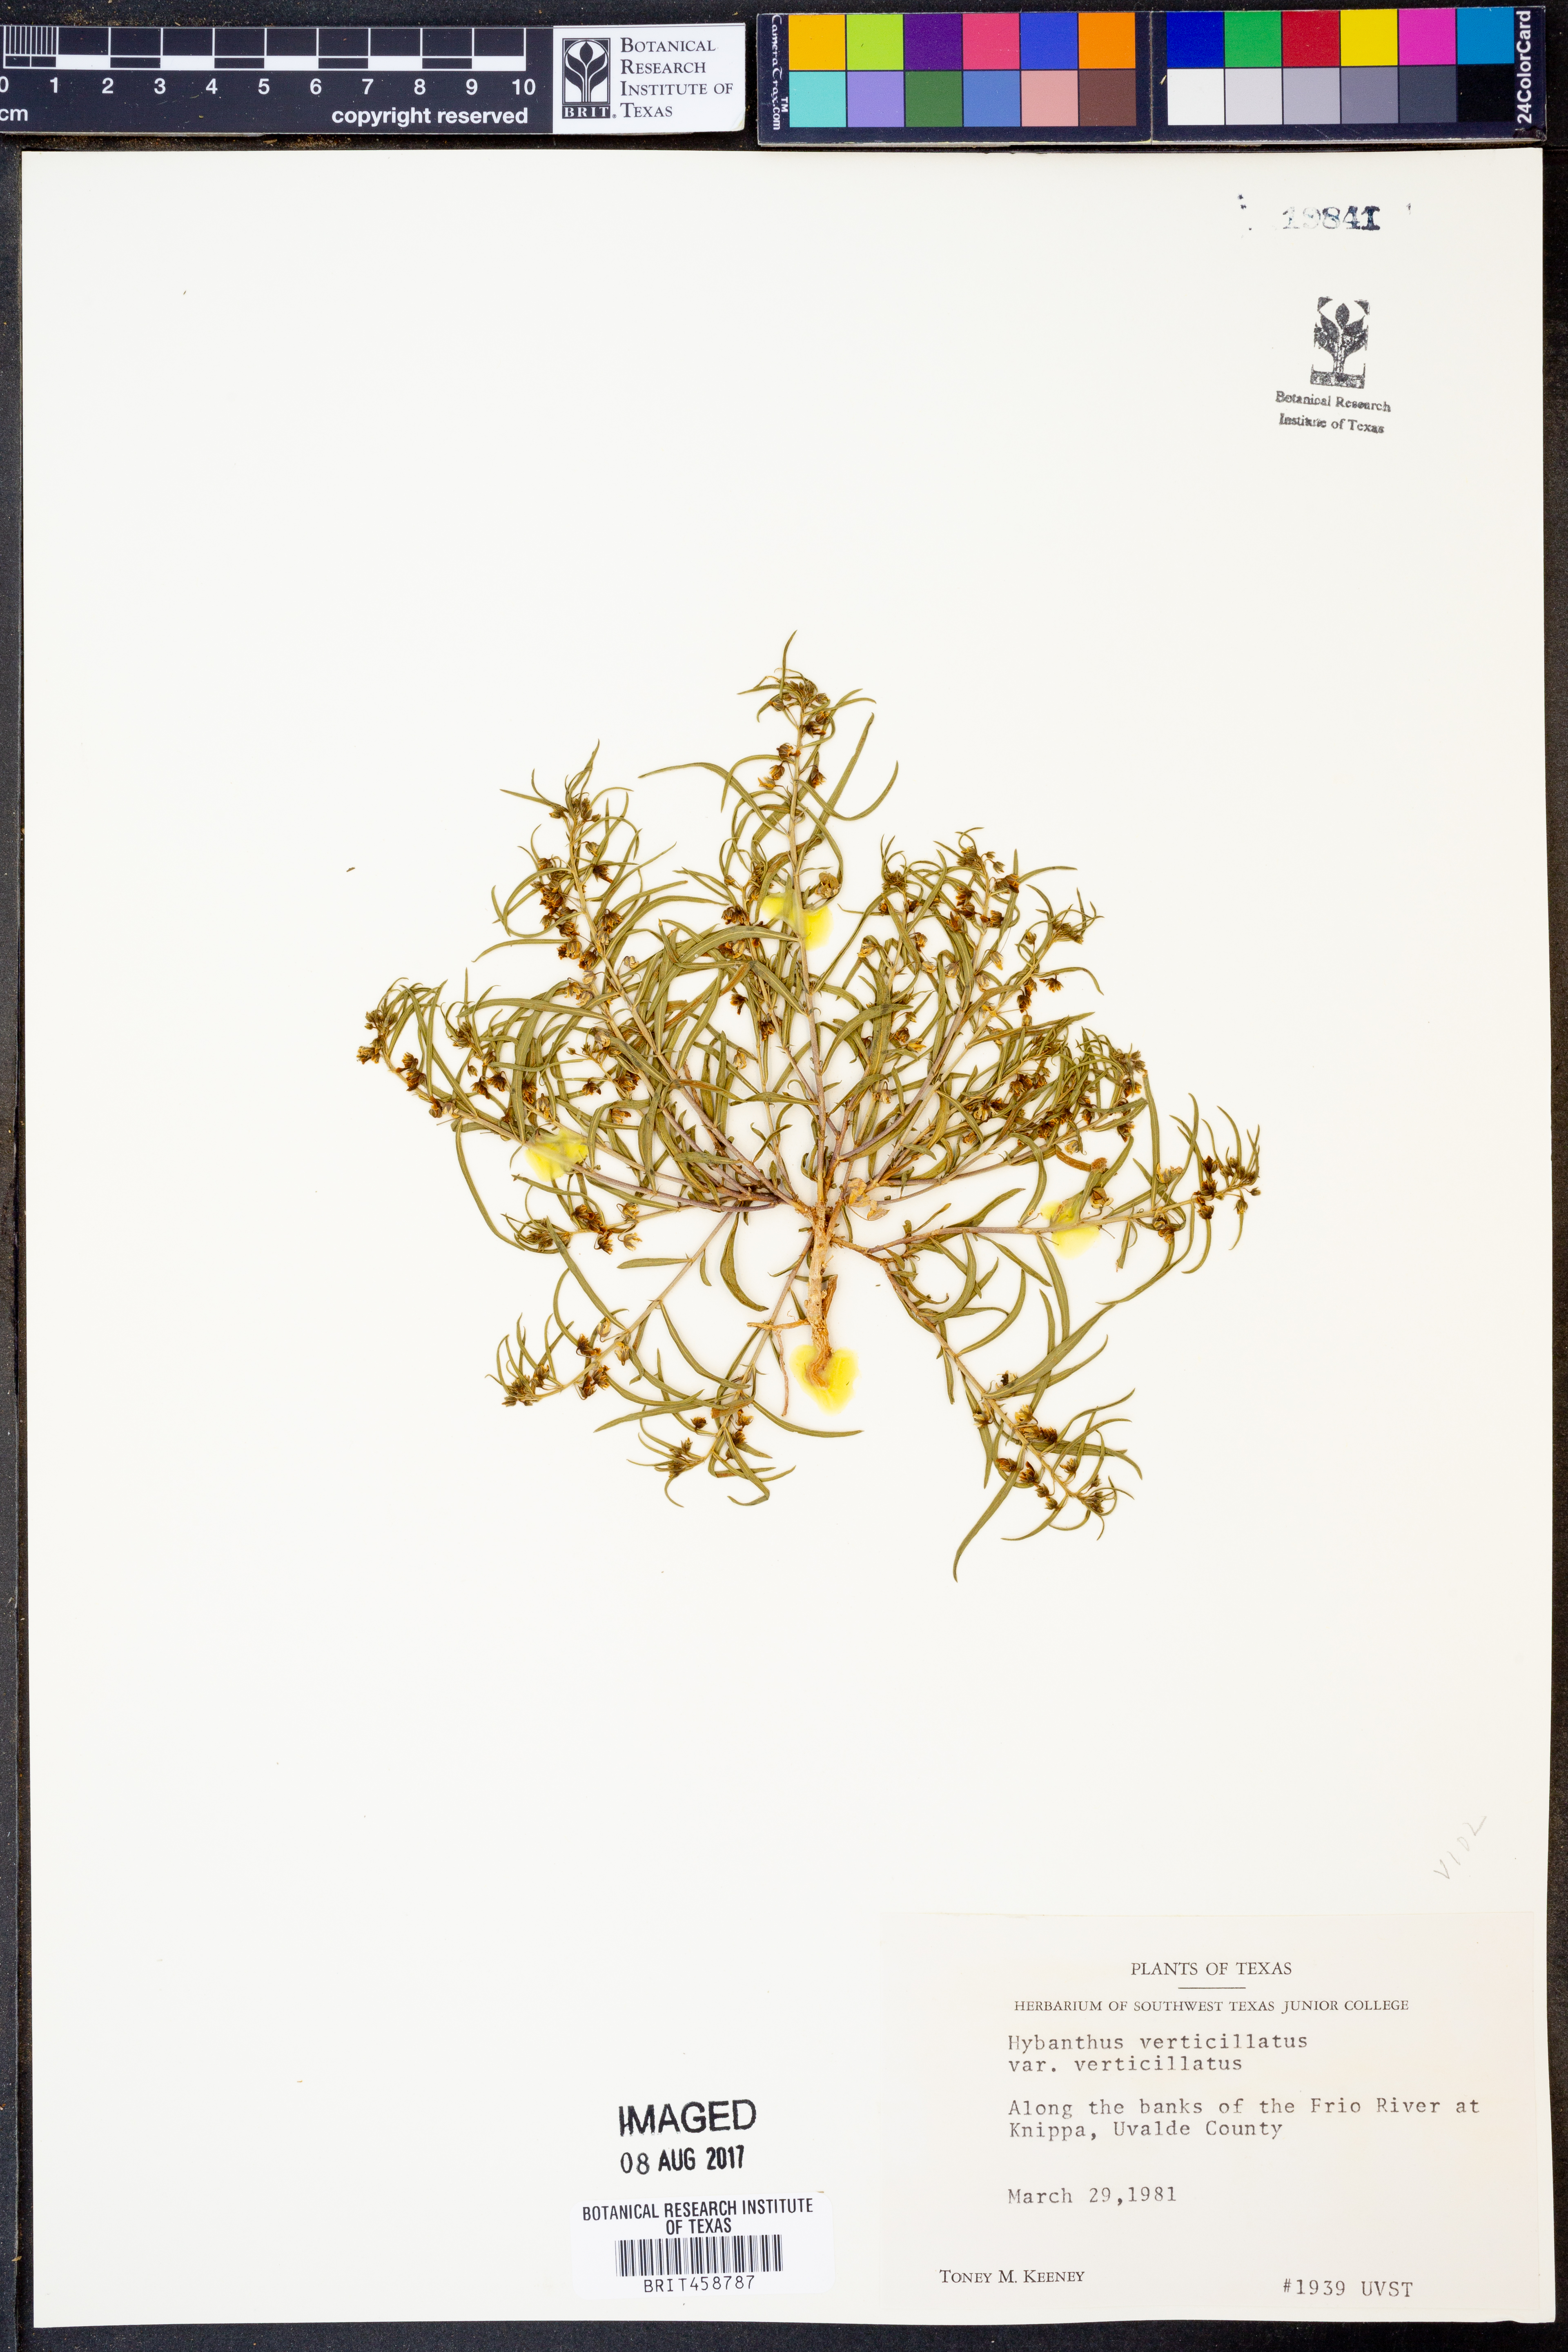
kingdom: Plantae
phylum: Tracheophyta
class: Magnoliopsida
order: Malpighiales
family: Violaceae
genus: Pombalia
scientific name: Pombalia verticillata
